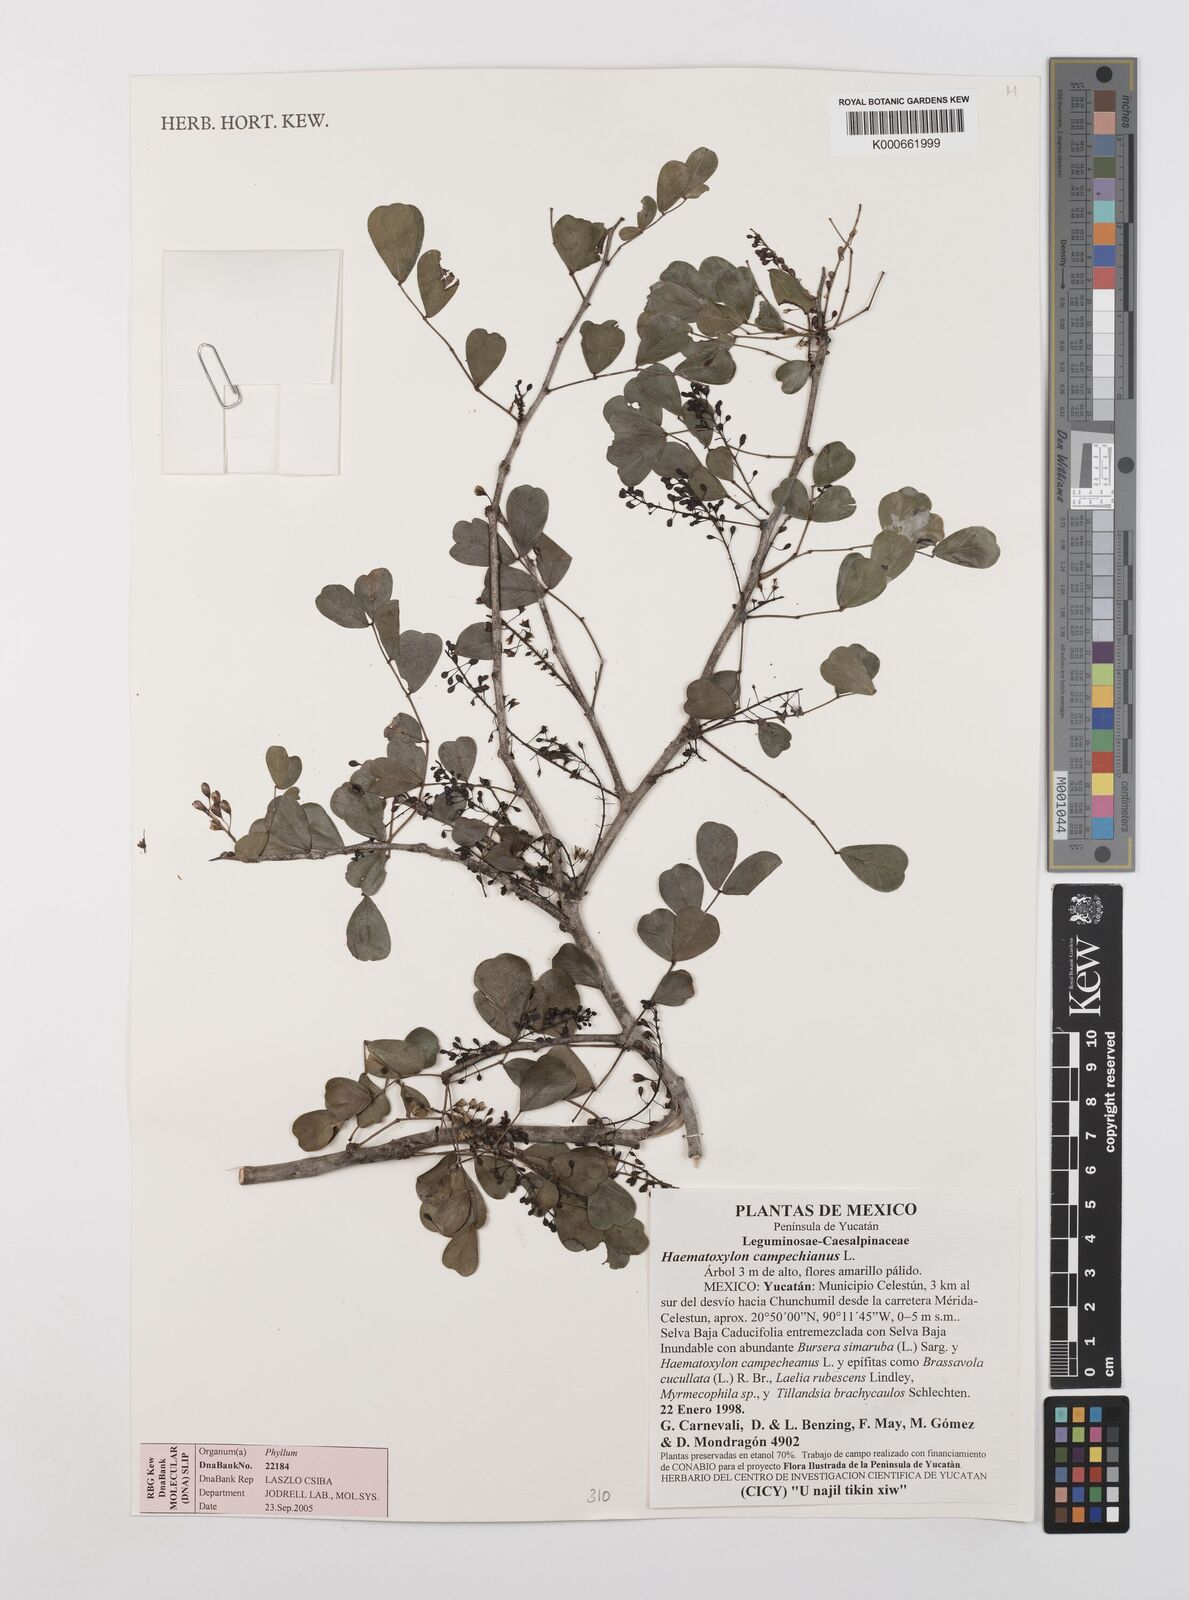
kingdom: Plantae
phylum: Tracheophyta
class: Magnoliopsida
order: Fabales
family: Fabaceae
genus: Haematoxylum
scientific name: Haematoxylum
